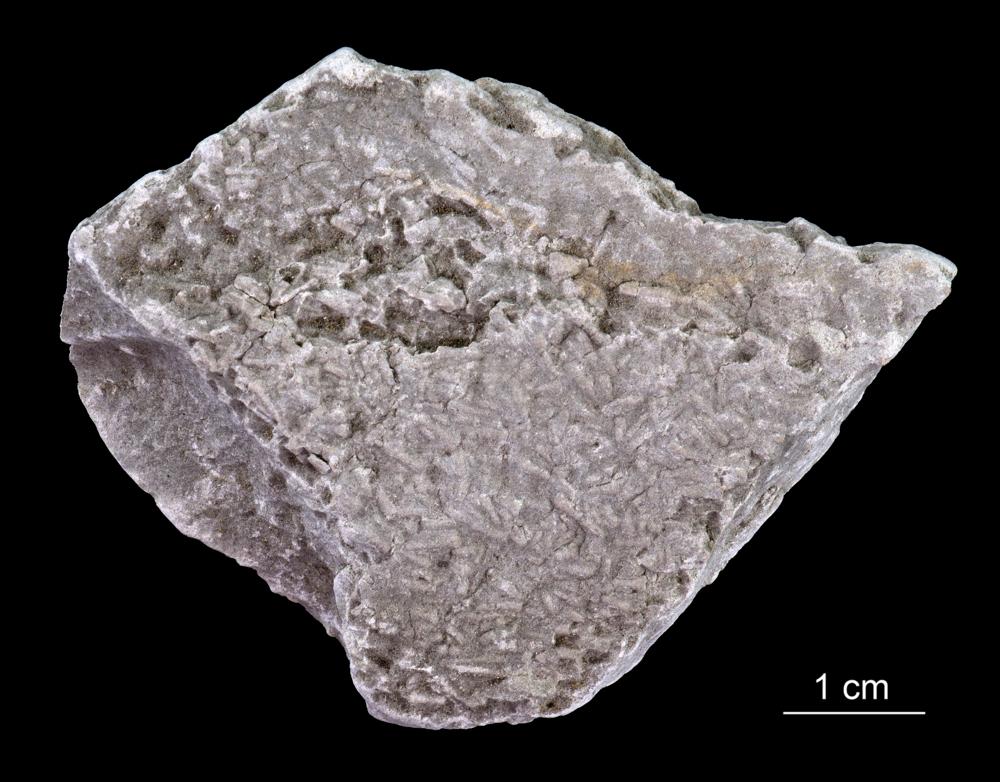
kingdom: Animalia
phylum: Annelida
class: Polychaeta
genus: Volborthella
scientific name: Volborthella tenuis
